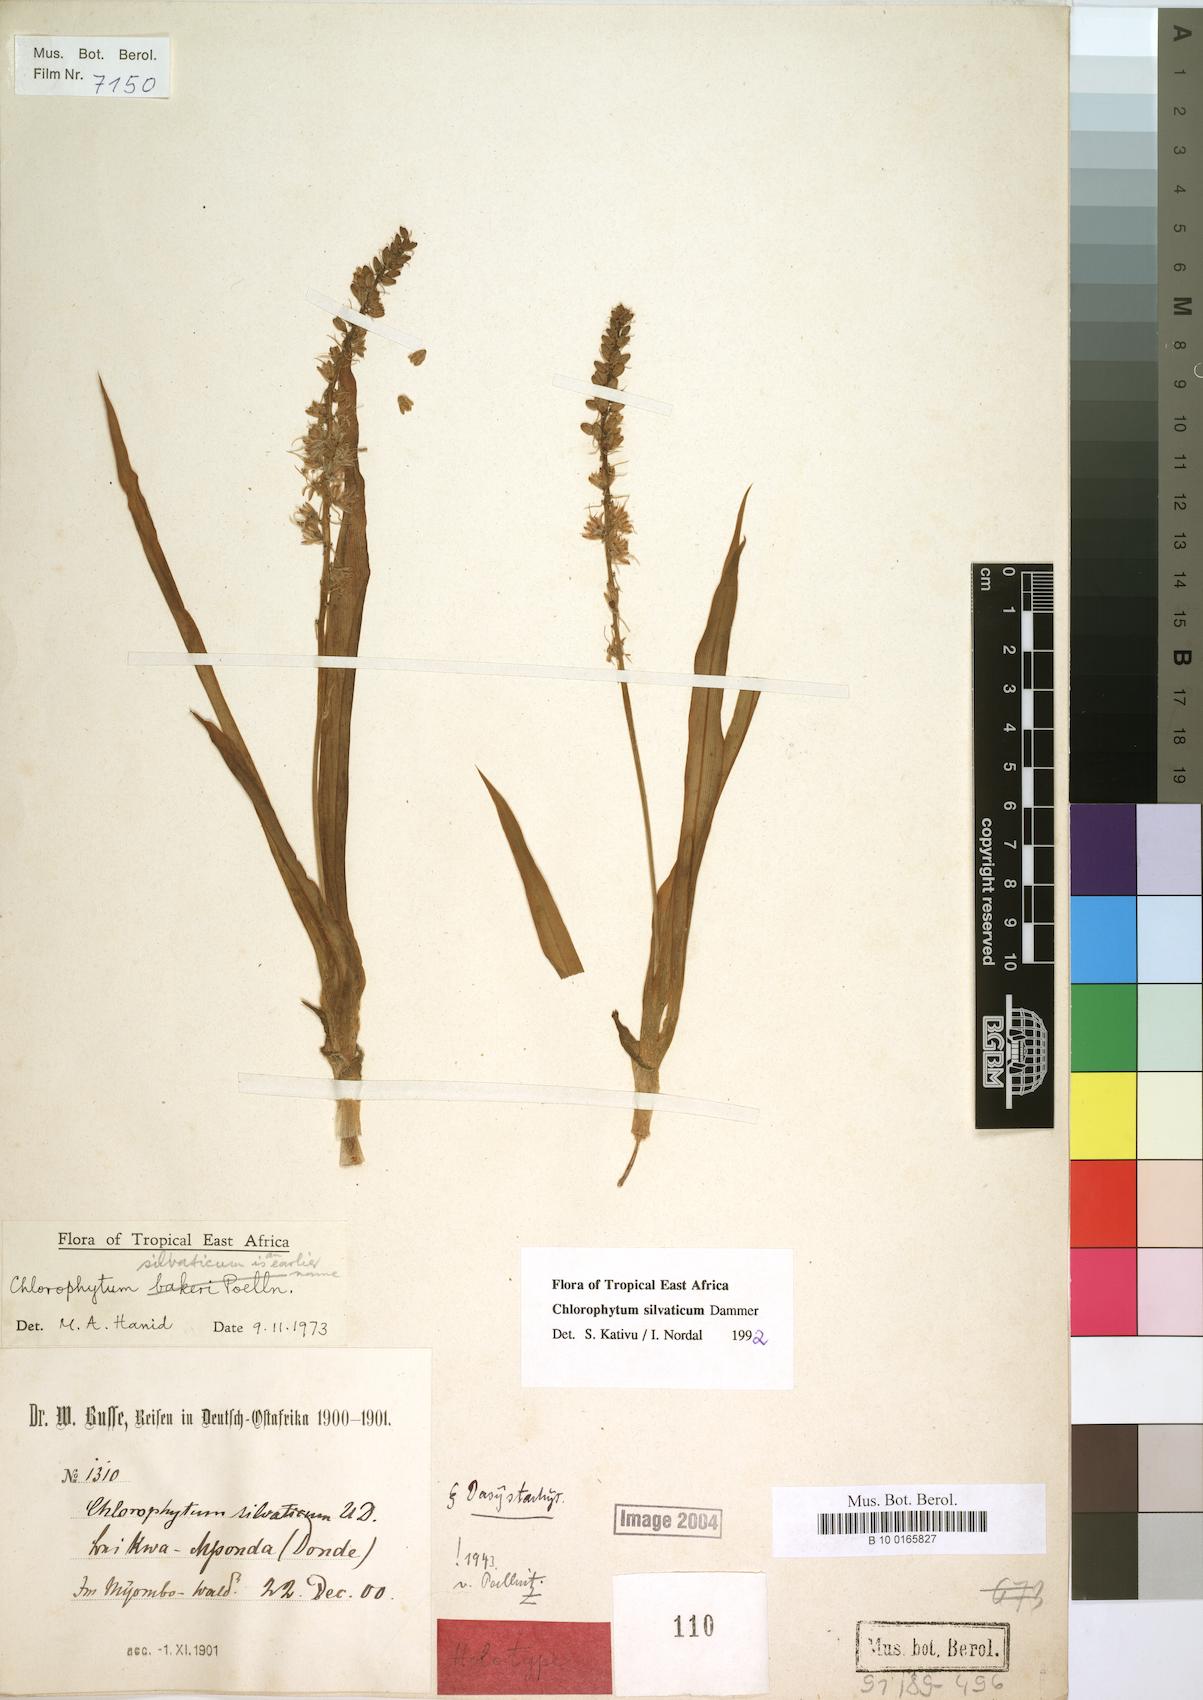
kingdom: Plantae
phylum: Tracheophyta
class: Liliopsida
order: Asparagales
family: Asparagaceae
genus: Chlorophytum
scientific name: Chlorophytum africanum
